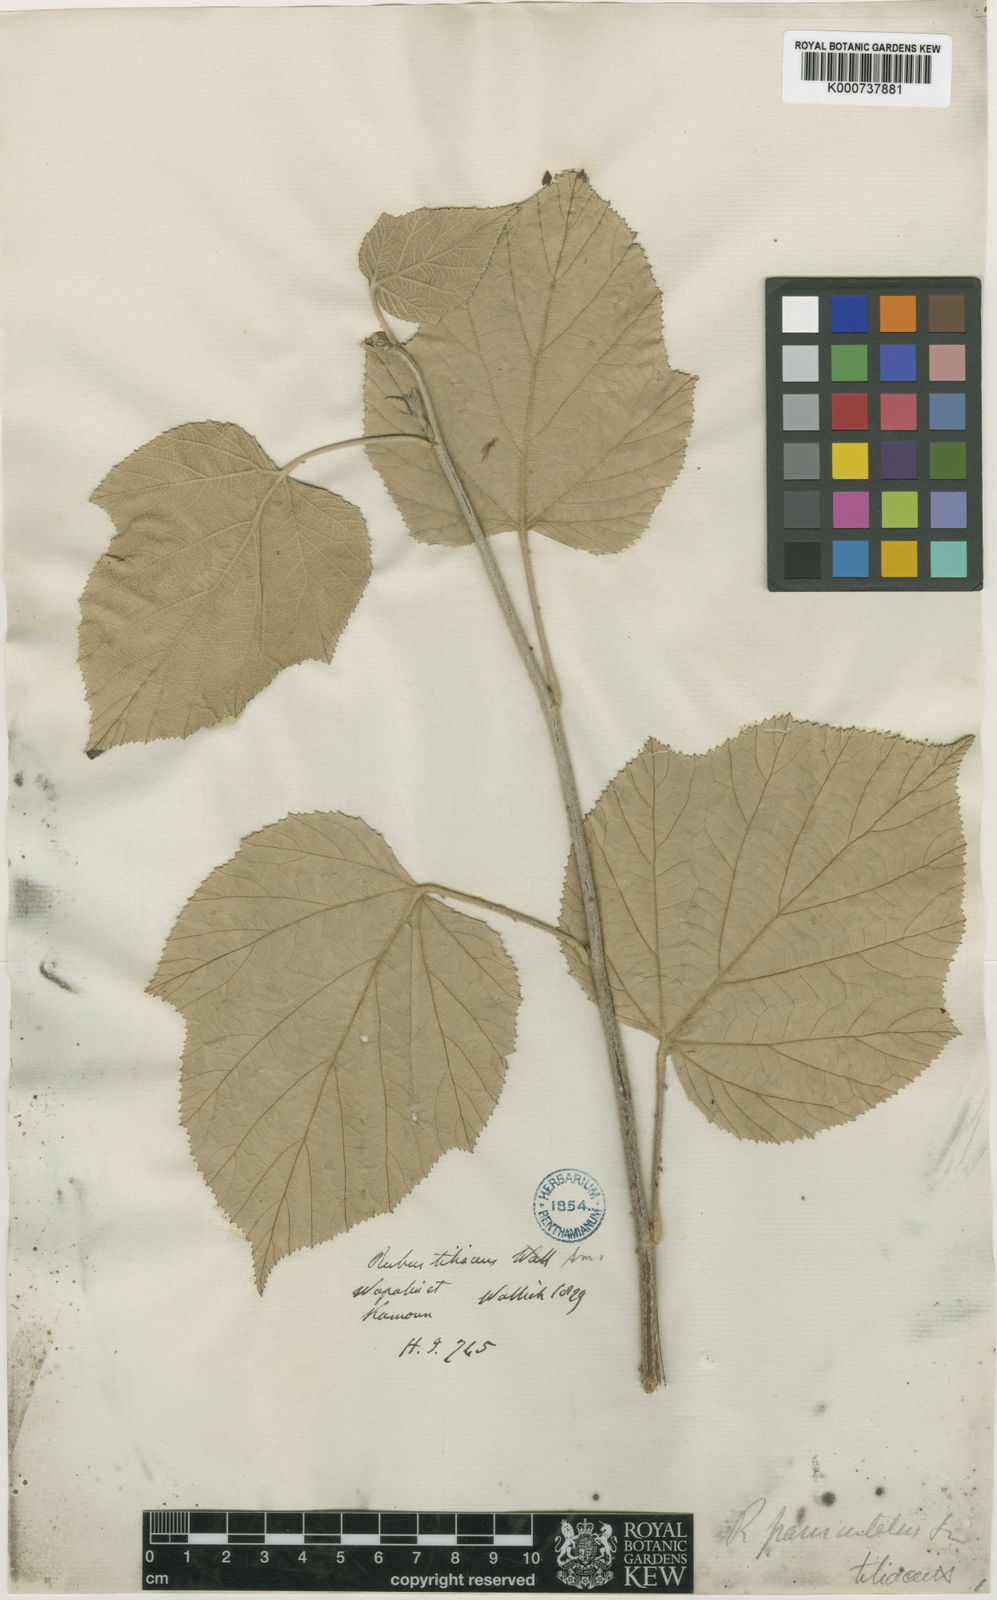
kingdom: Plantae
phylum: Tracheophyta
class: Magnoliopsida
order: Rosales
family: Rosaceae
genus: Rubus
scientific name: Rubus paniculatus
